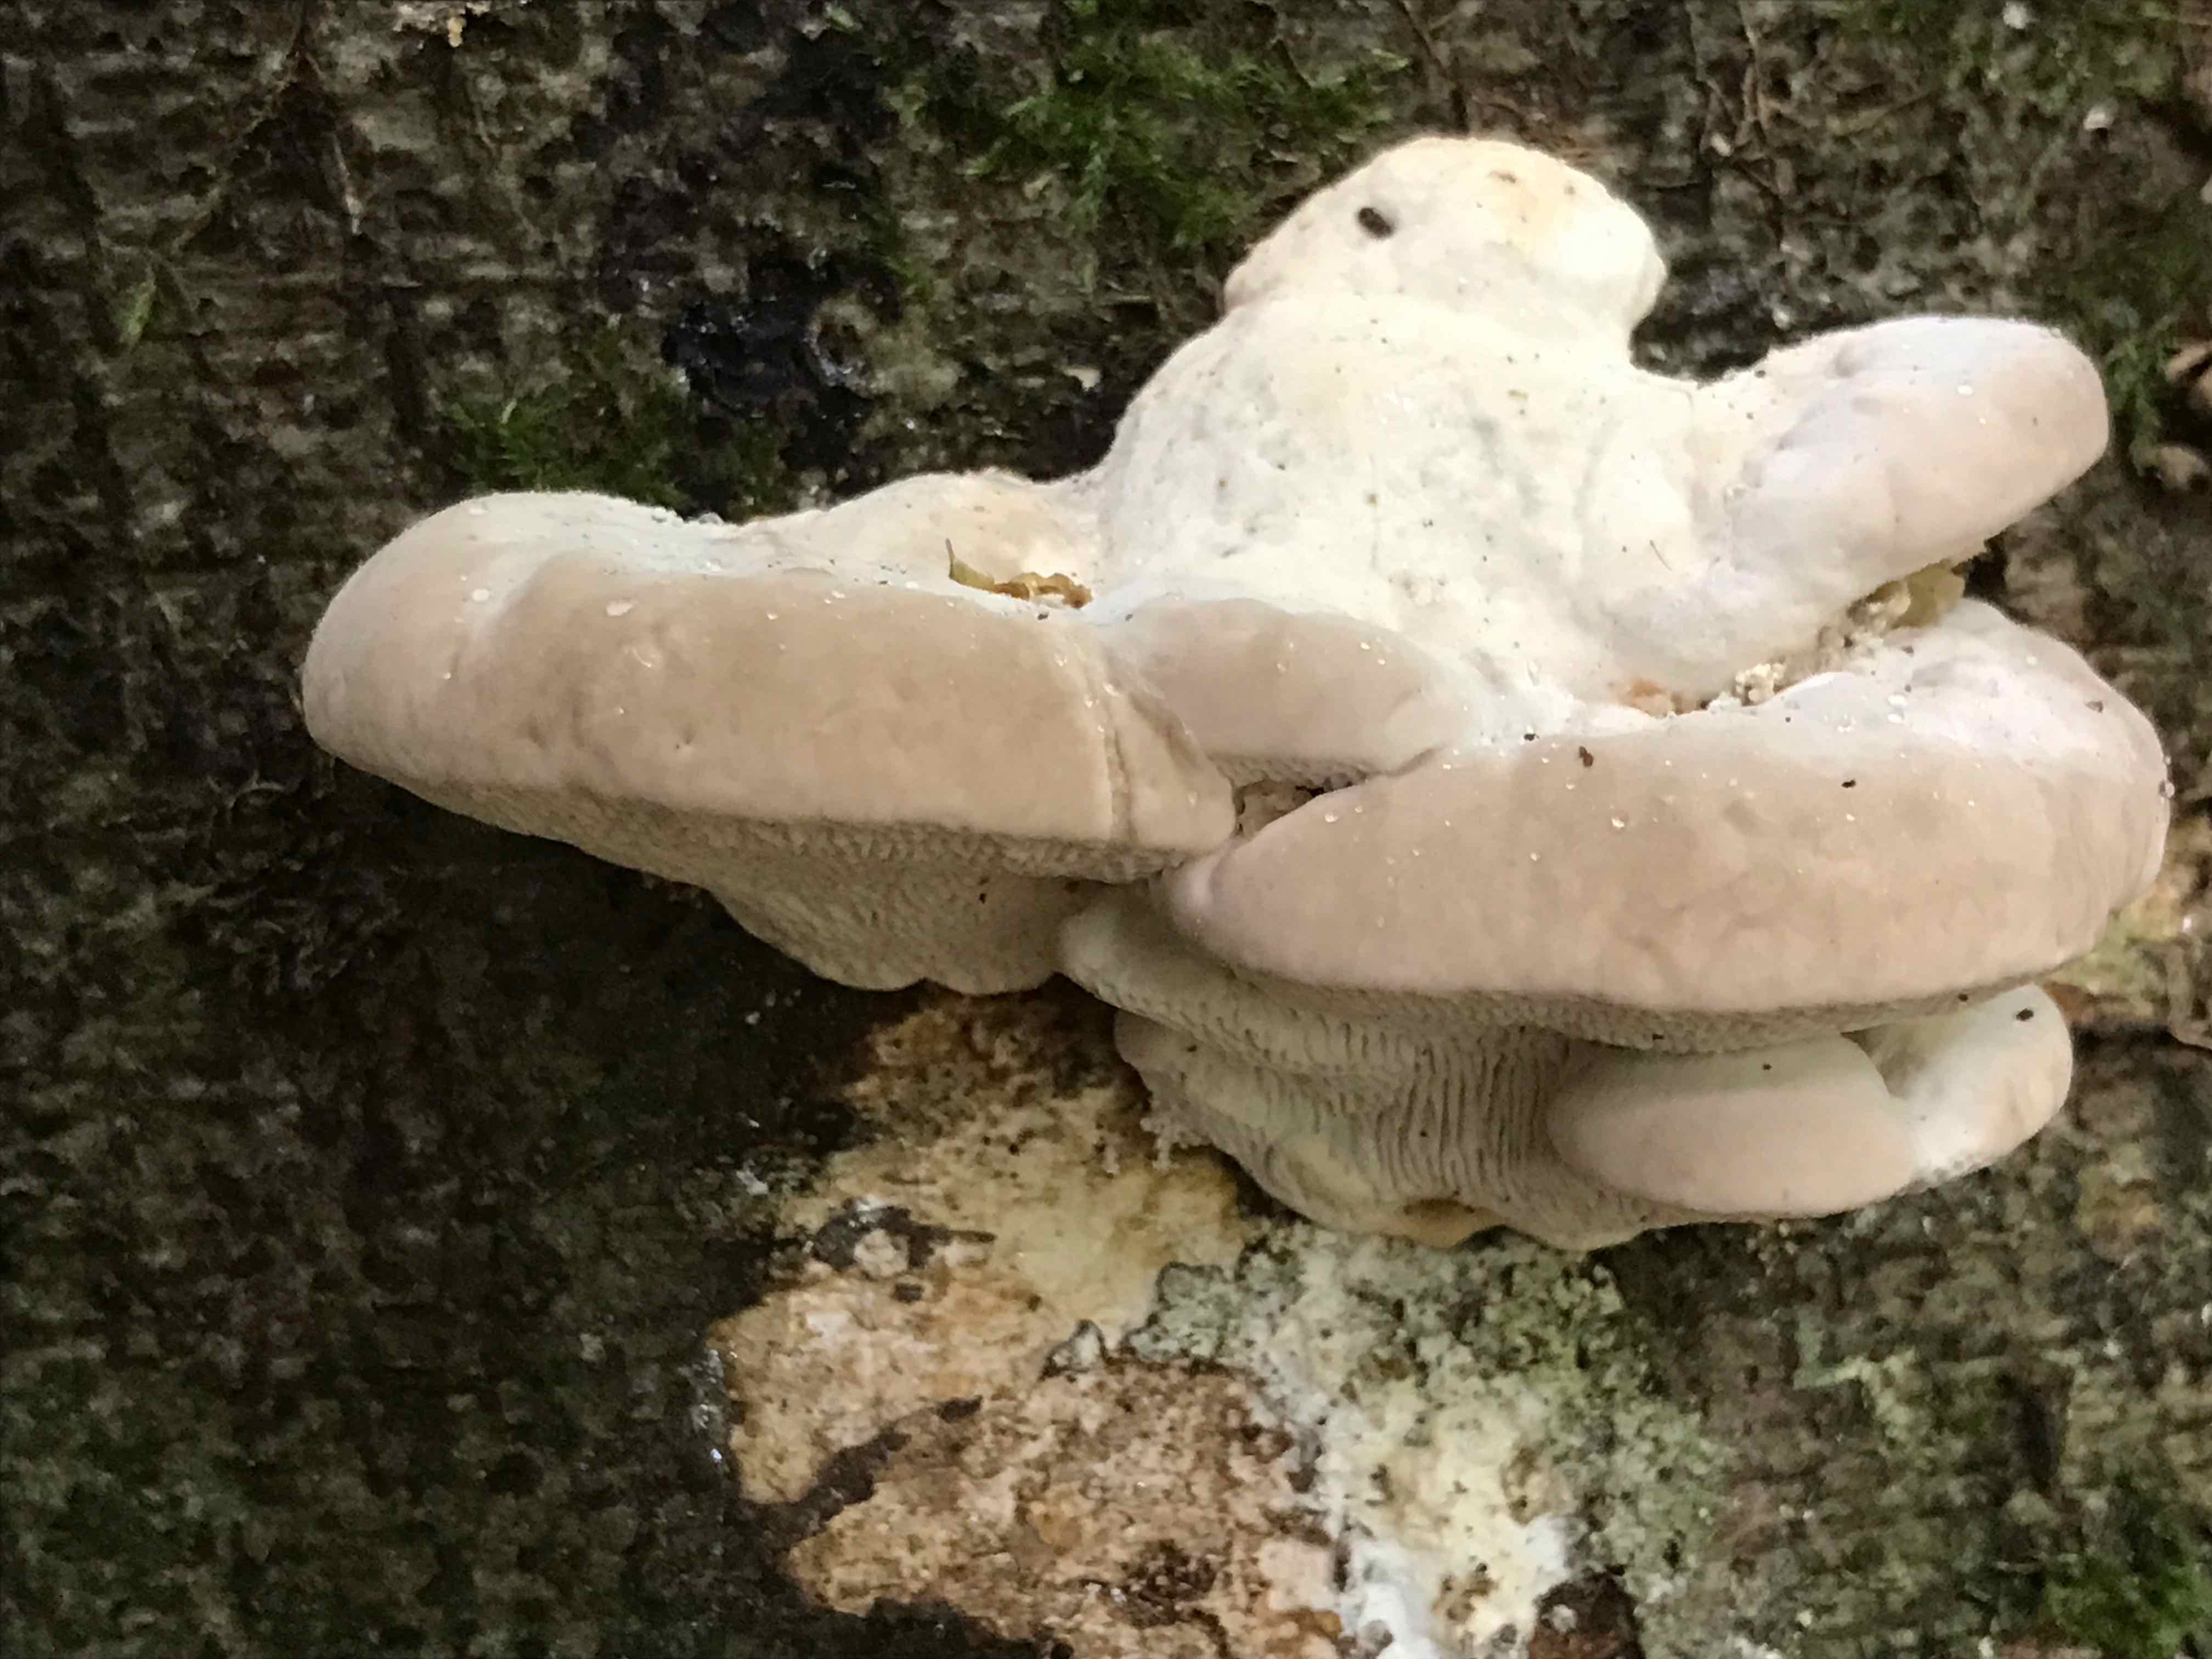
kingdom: Fungi
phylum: Basidiomycota
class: Agaricomycetes
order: Polyporales
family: Polyporaceae
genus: Trametes
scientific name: Trametes gibbosa
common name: puklet læderporesvamp
